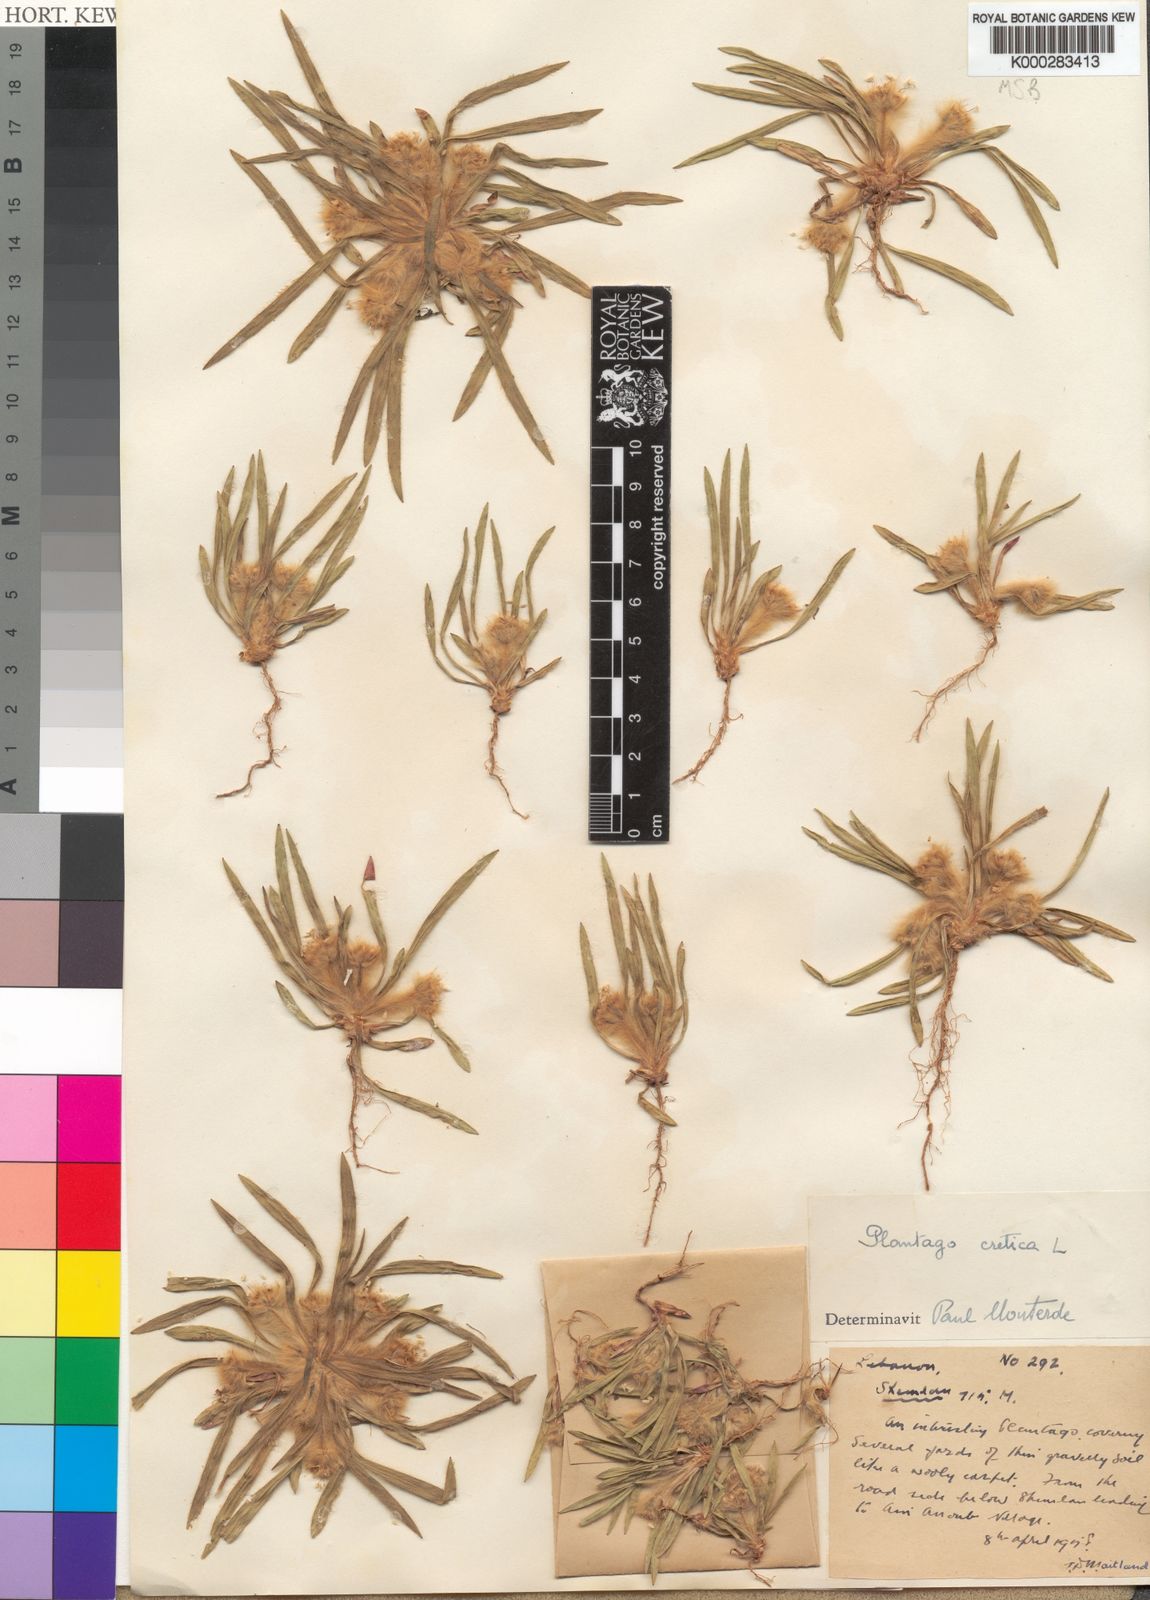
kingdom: Plantae
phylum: Tracheophyta
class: Magnoliopsida
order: Lamiales
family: Plantaginaceae
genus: Plantago
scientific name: Plantago cretica
